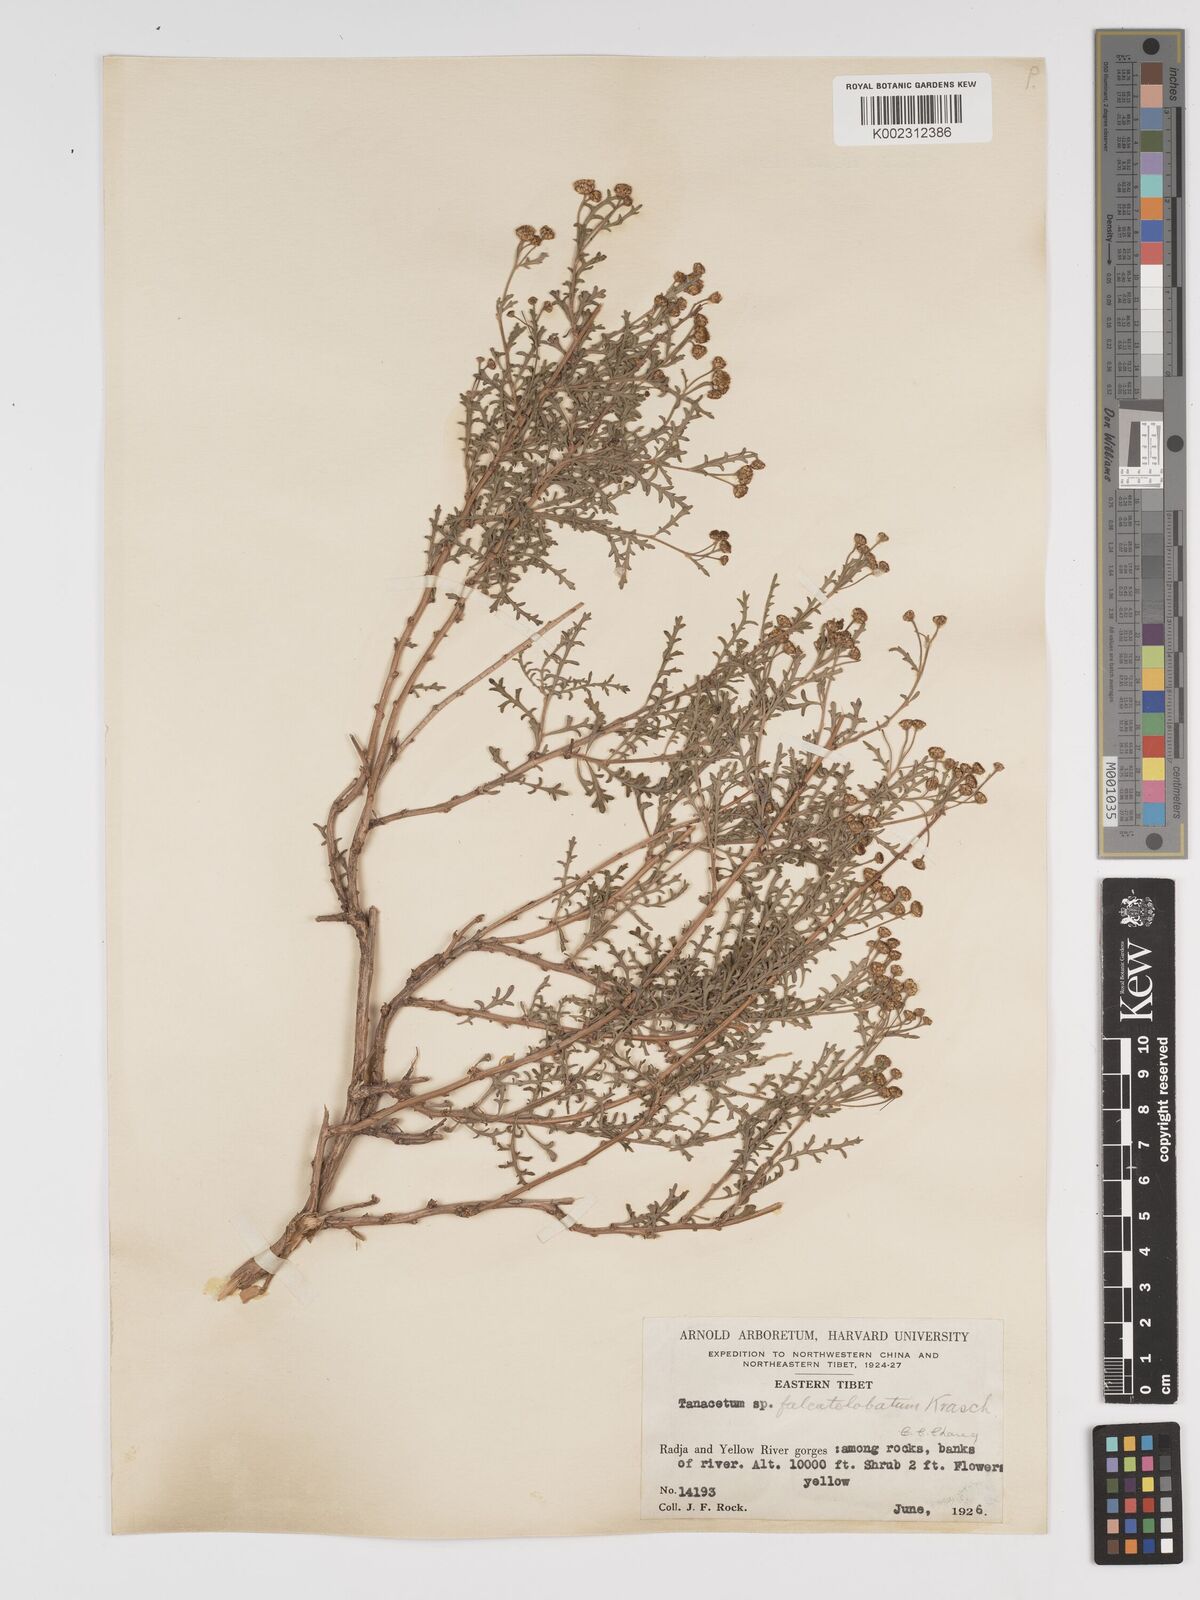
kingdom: Plantae
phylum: Tracheophyta
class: Magnoliopsida
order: Asterales
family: Asteraceae
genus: Cancrinia
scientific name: Cancrinia maximowiczii
